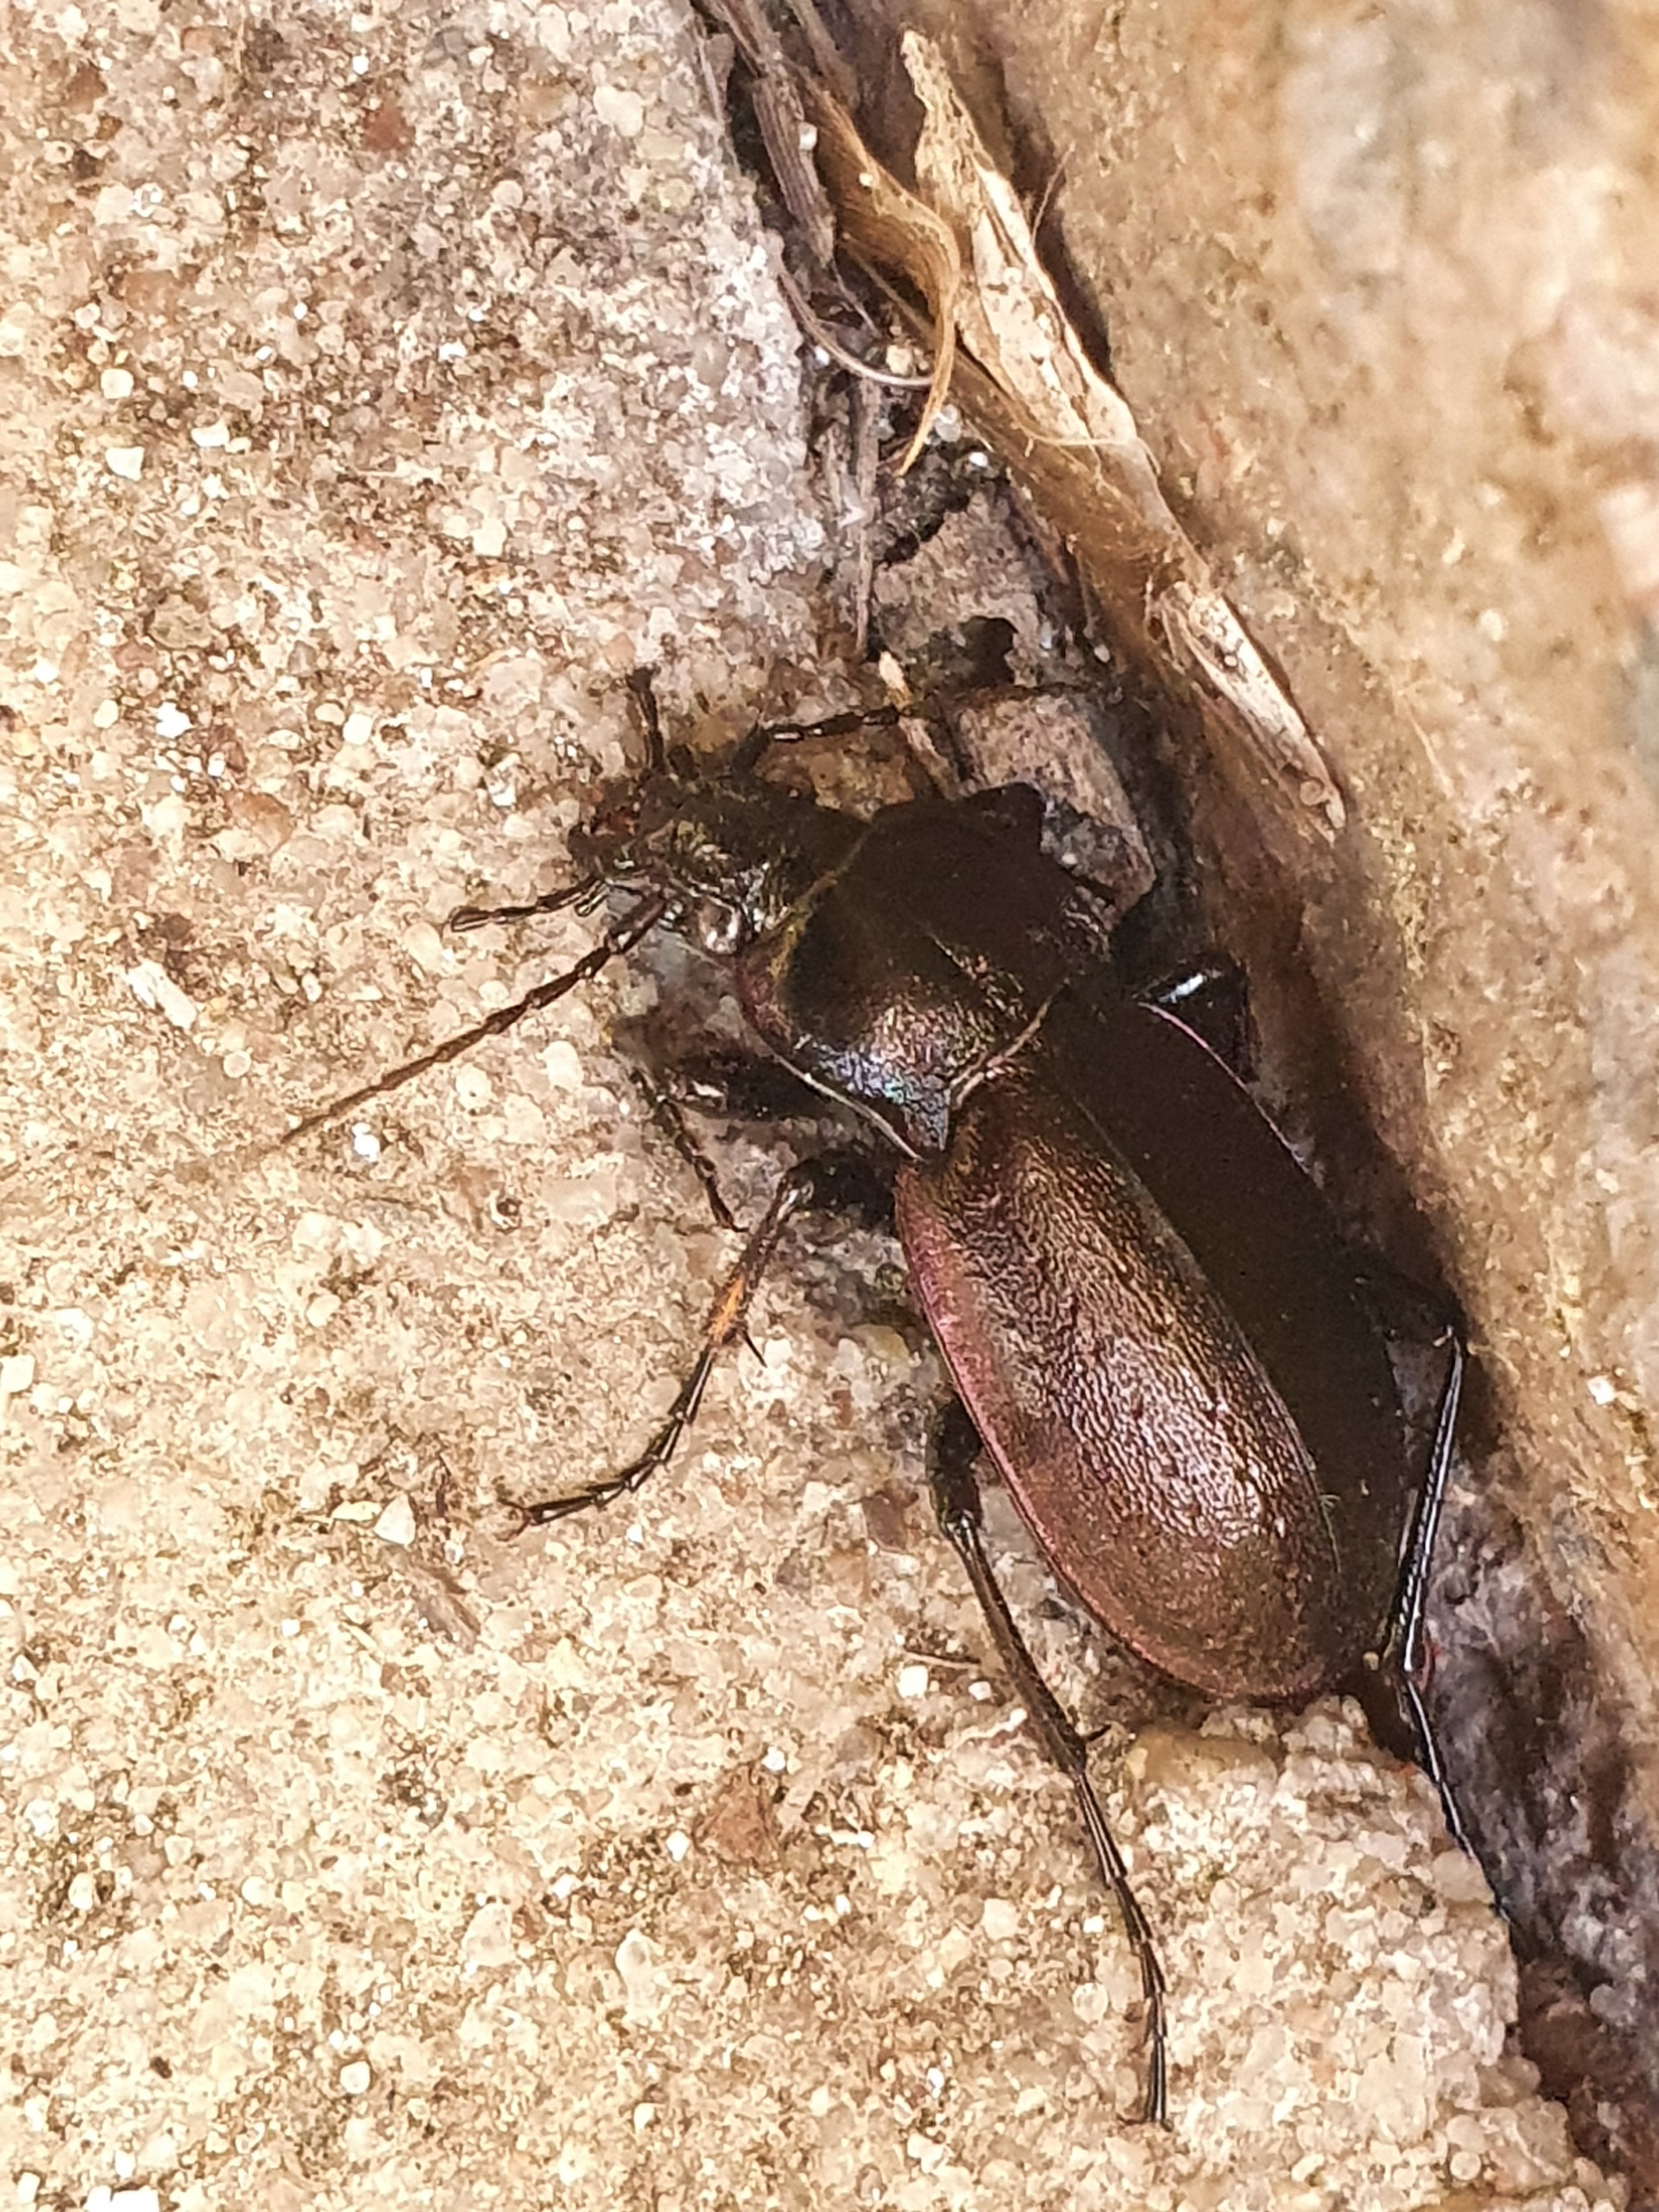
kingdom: Animalia
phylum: Arthropoda
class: Insecta
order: Coleoptera
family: Carabidae
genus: Carabus
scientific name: Carabus nemoralis
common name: Kratløber
